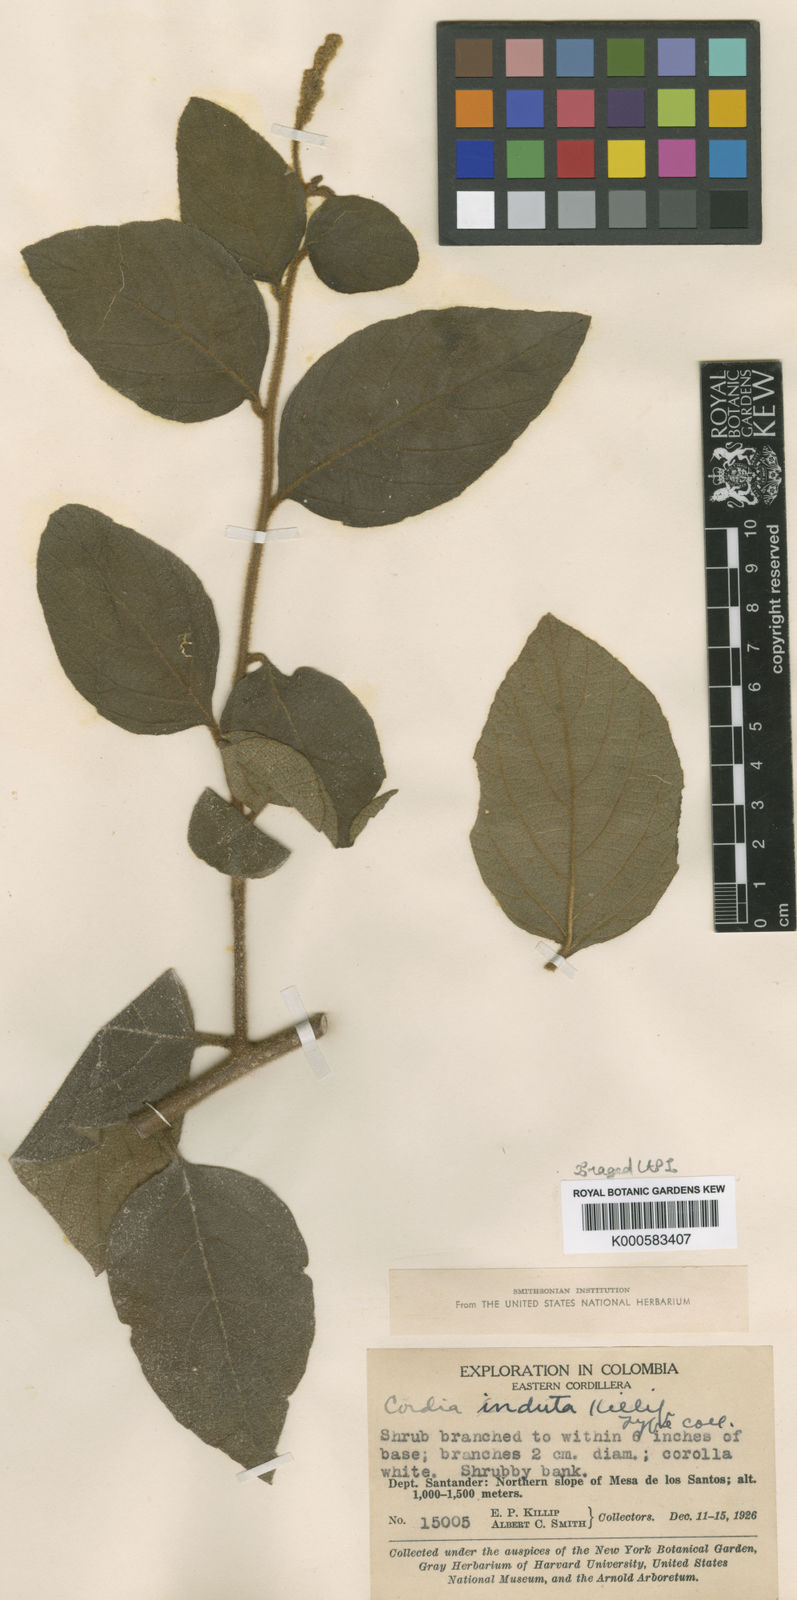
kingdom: Plantae
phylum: Tracheophyta
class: Magnoliopsida
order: Boraginales
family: Cordiaceae
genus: Cordia
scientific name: Cordia
